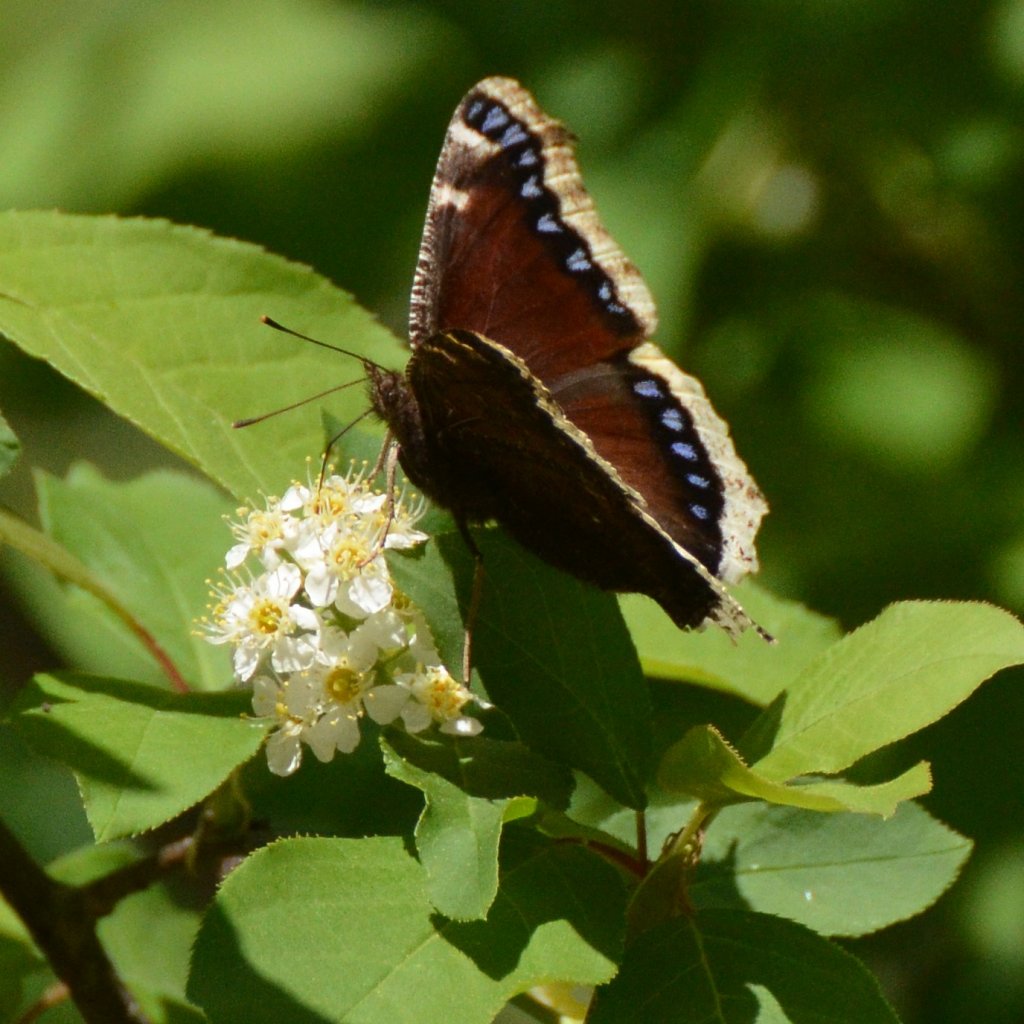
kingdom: Animalia
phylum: Arthropoda
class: Insecta
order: Lepidoptera
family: Nymphalidae
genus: Nymphalis
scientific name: Nymphalis antiopa
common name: Mourning Cloak
